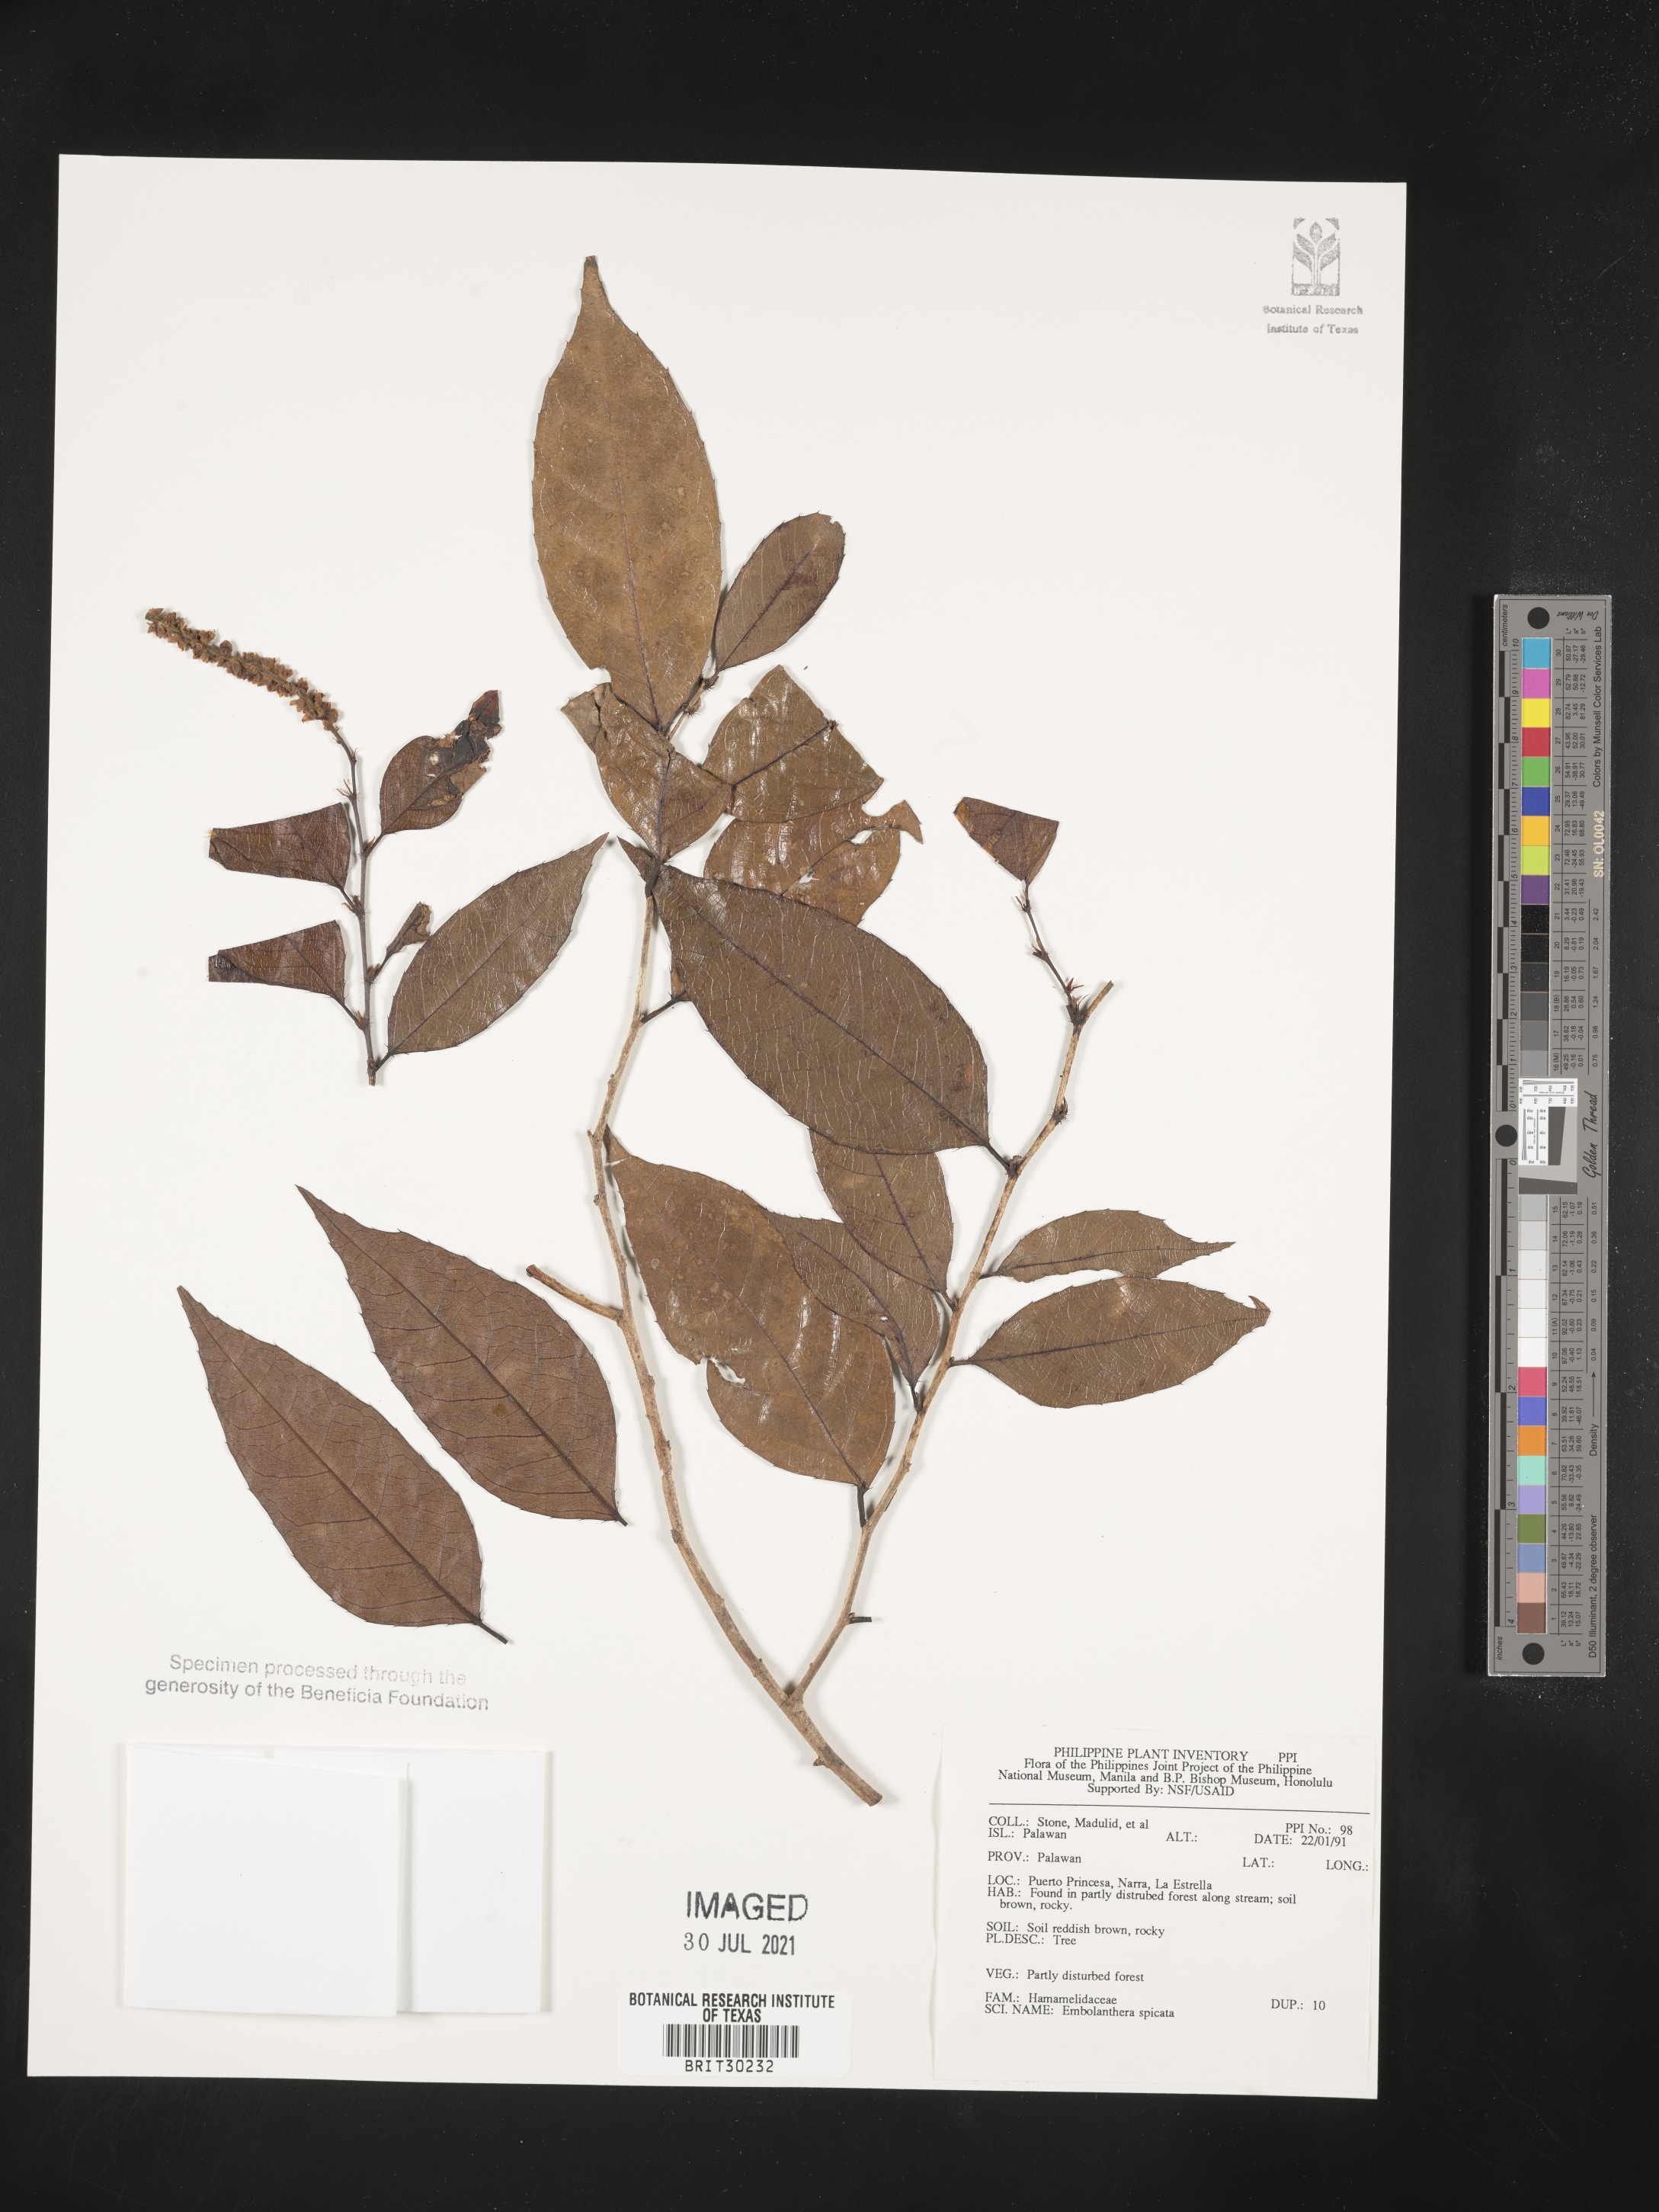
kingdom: Plantae
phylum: Tracheophyta
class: Magnoliopsida
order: Saxifragales
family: Hamamelidaceae
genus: Embolanthera
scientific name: Embolanthera spicata
